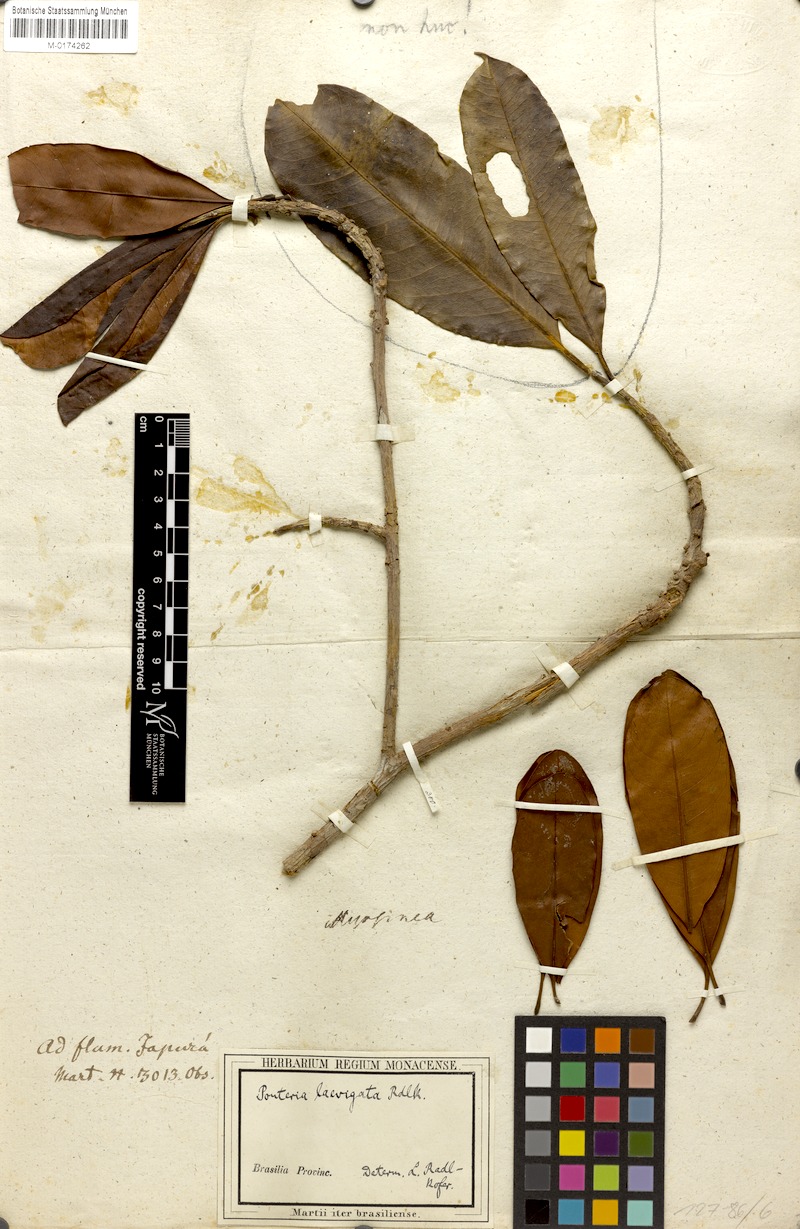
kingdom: Plantae
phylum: Tracheophyta
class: Magnoliopsida
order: Ericales
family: Sapotaceae
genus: Pouteria
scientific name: Pouteria laevigata
